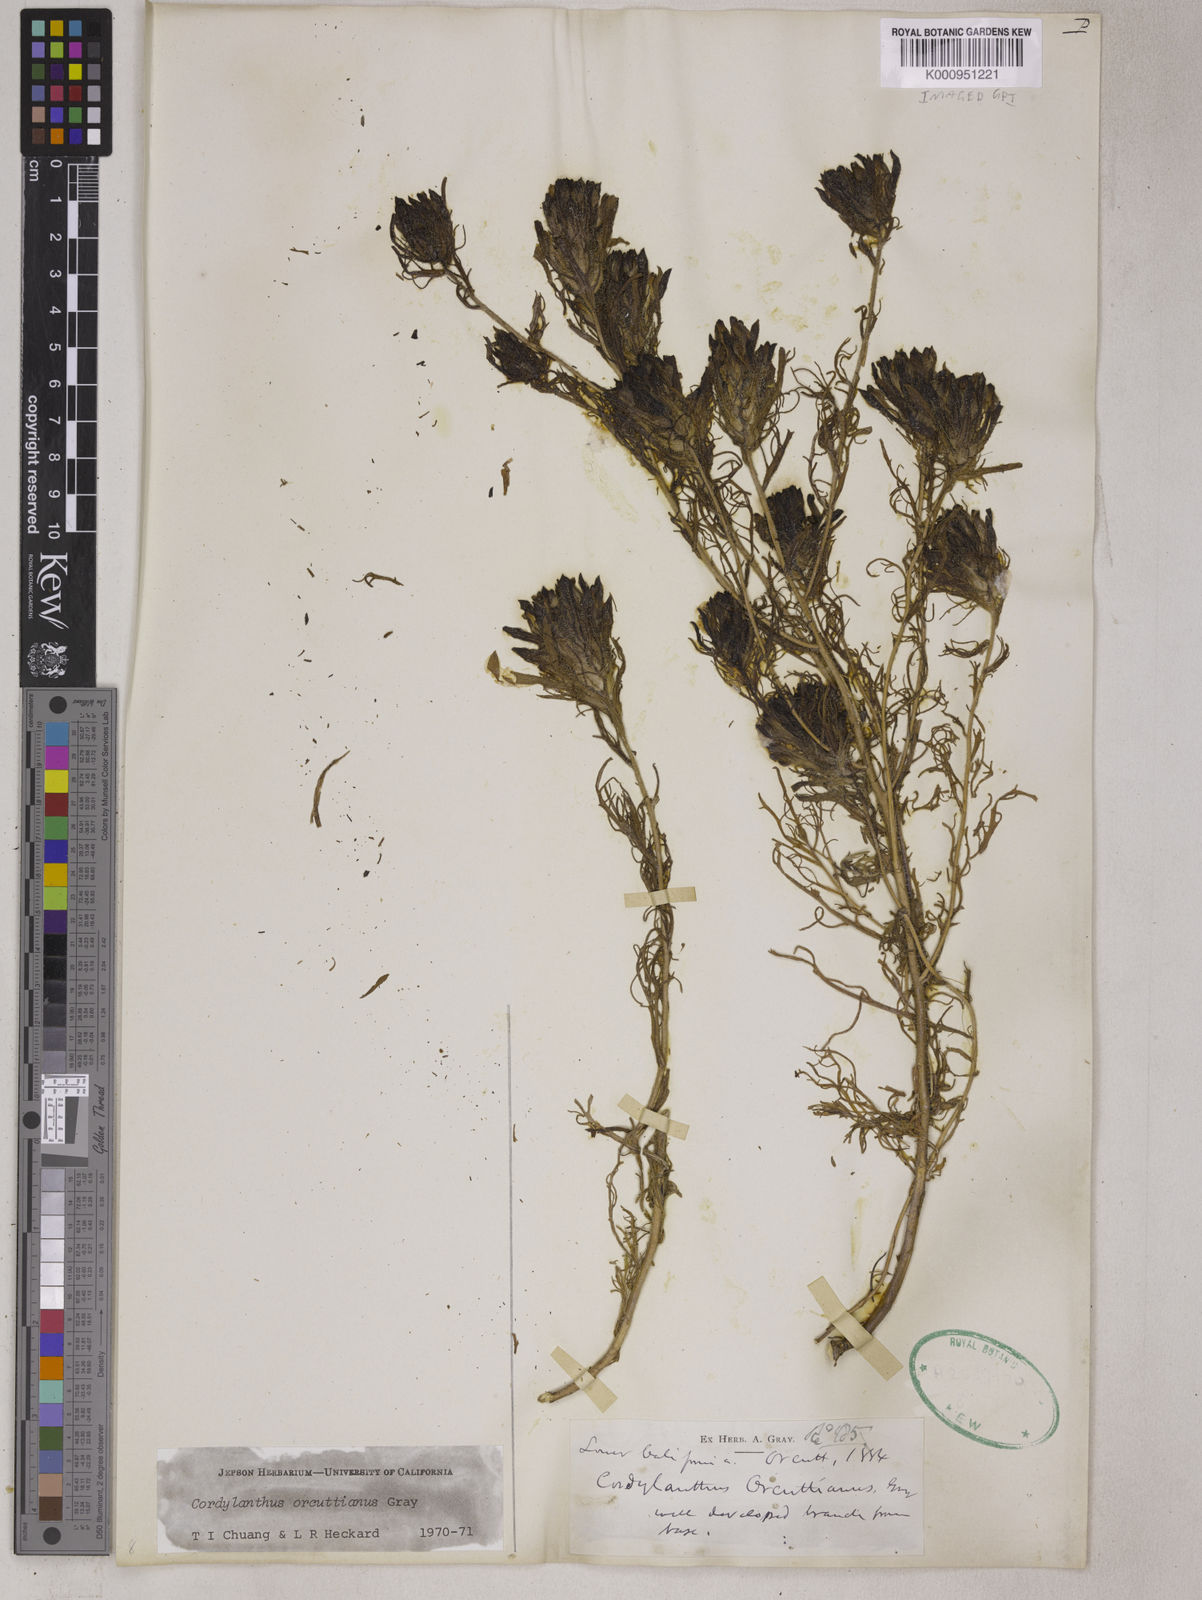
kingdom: Plantae
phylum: Tracheophyta
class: Magnoliopsida
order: Lamiales
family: Orobanchaceae
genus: Dicranostegia
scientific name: Dicranostegia orcuttiana
